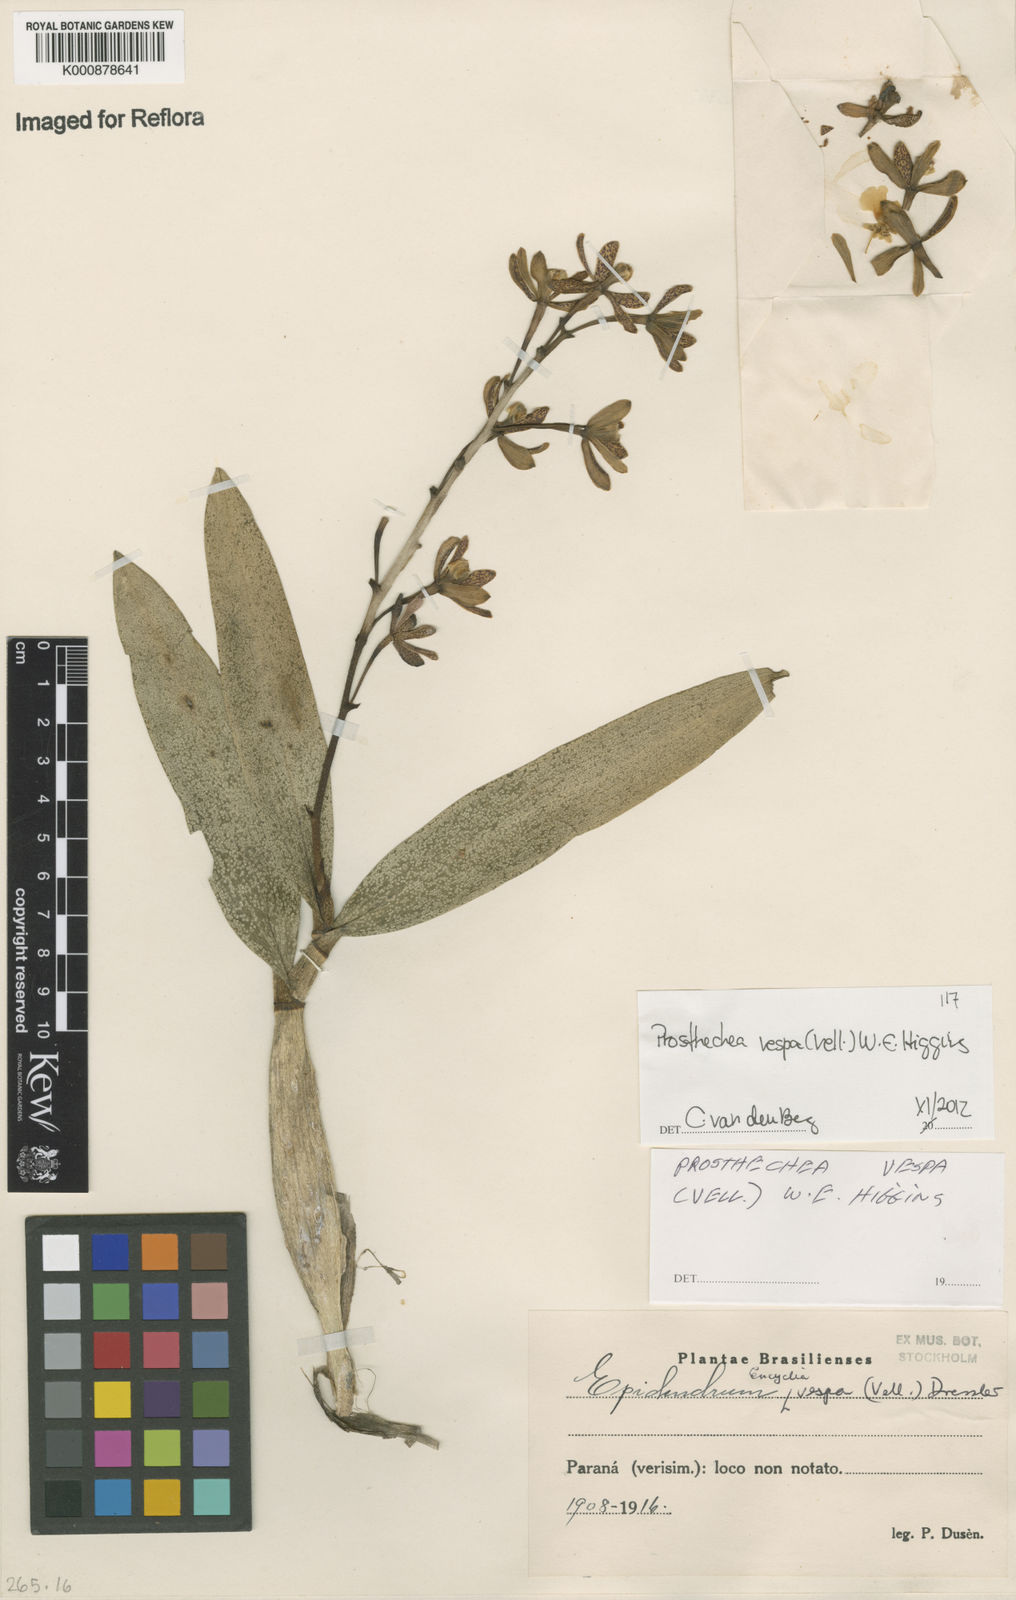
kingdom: Plantae
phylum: Tracheophyta
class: Liliopsida
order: Asparagales
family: Orchidaceae
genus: Prosthechea
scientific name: Prosthechea vespa
